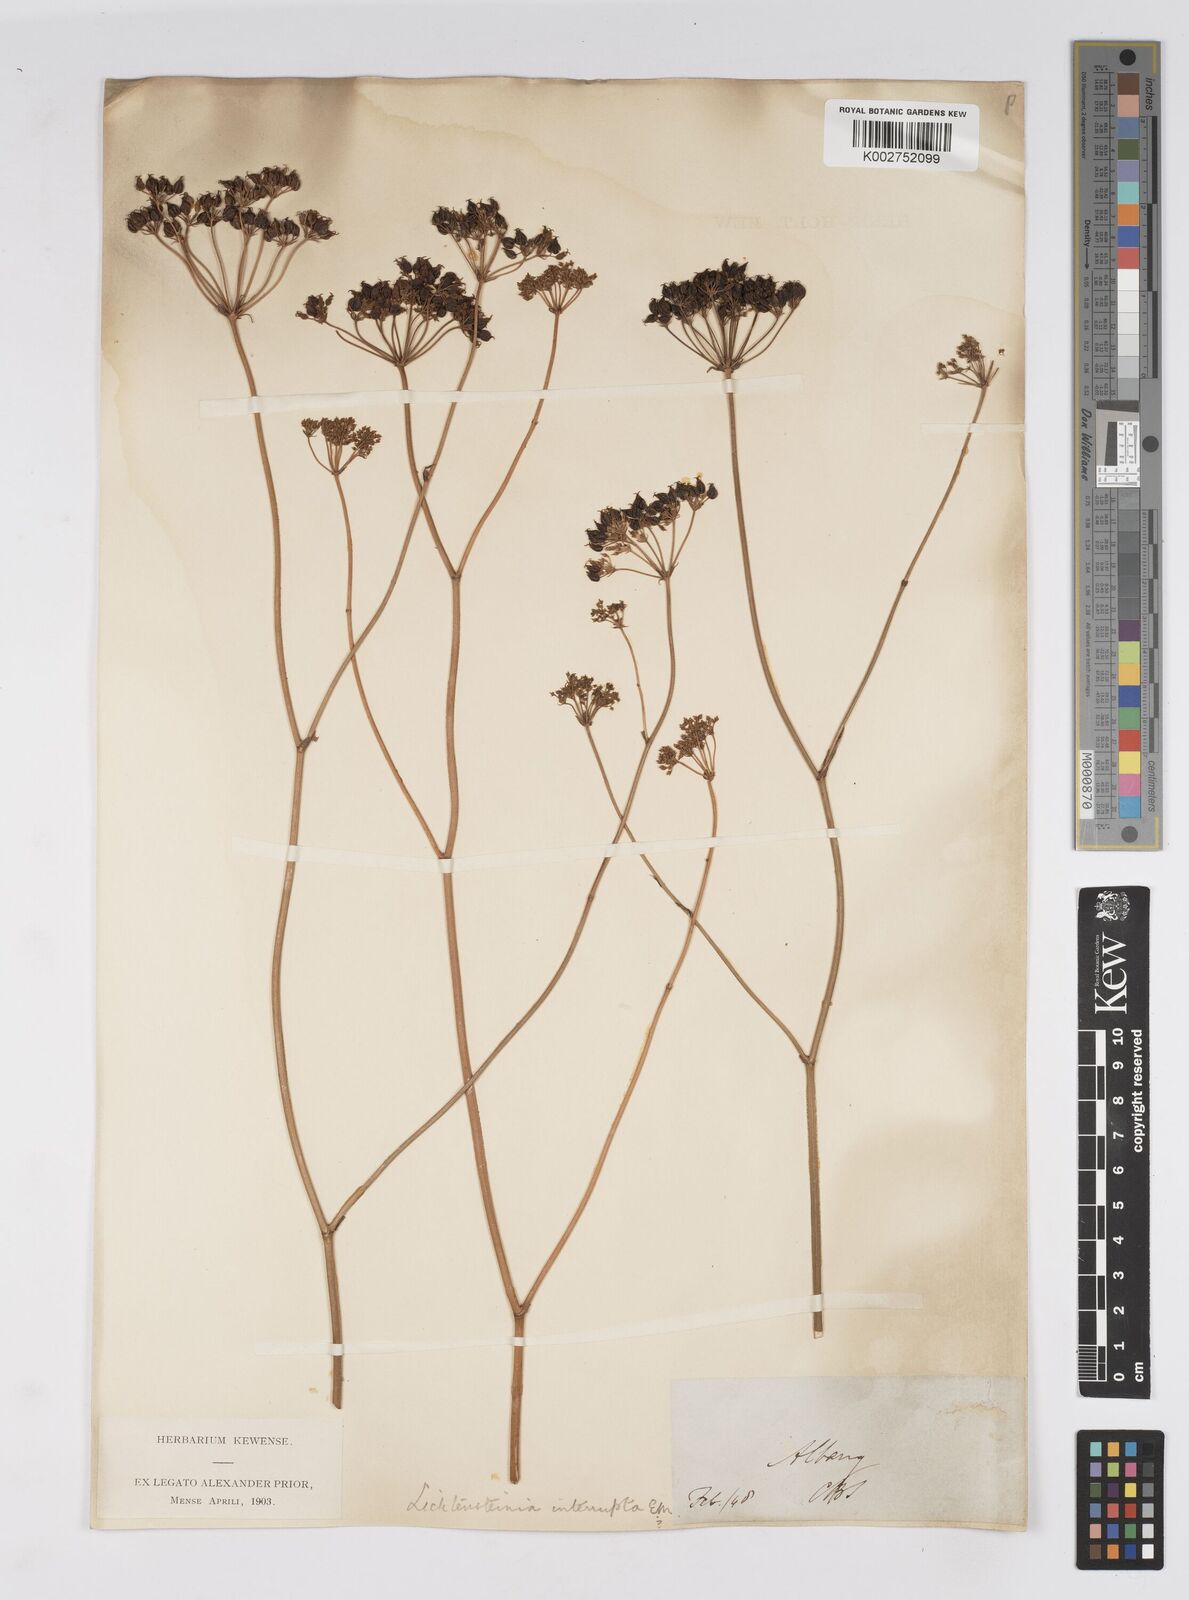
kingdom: Plantae
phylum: Tracheophyta
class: Magnoliopsida
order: Apiales
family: Apiaceae
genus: Lichtensteinia
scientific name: Lichtensteinia interrupta
